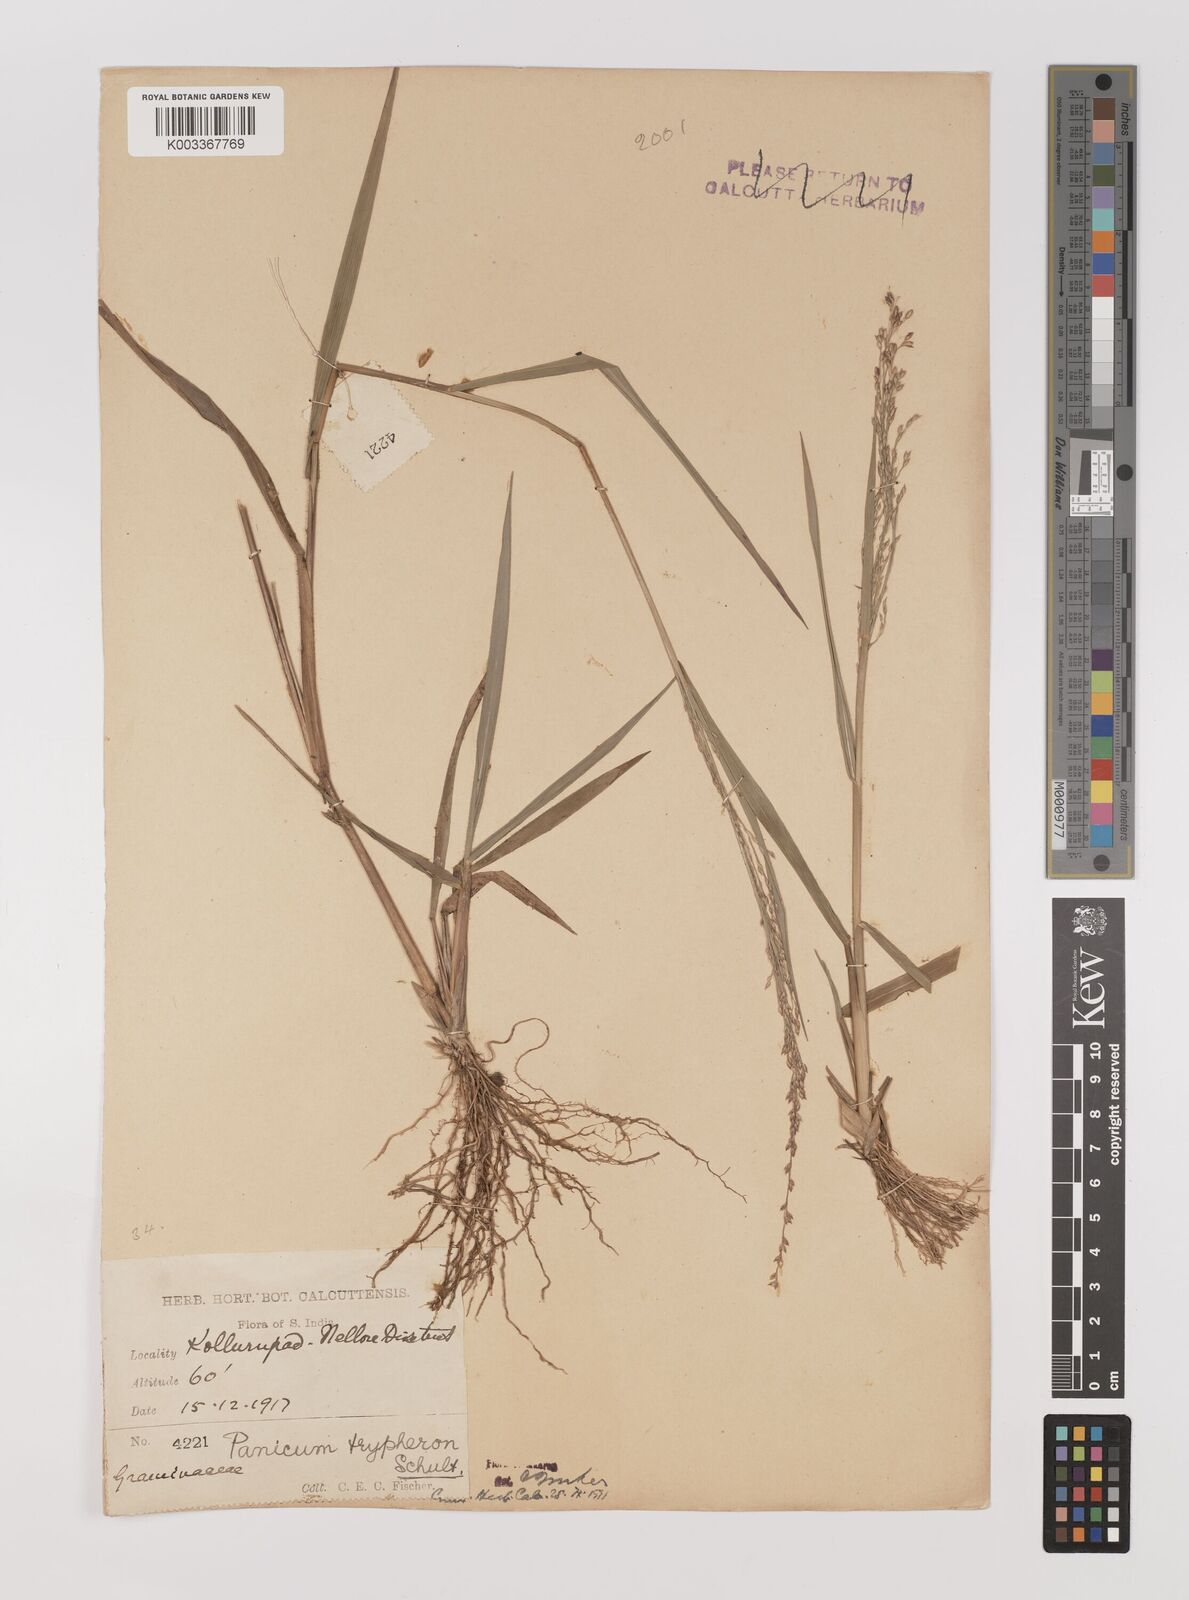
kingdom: Plantae
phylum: Tracheophyta
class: Liliopsida
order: Poales
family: Poaceae
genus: Panicum
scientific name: Panicum curviflorum
